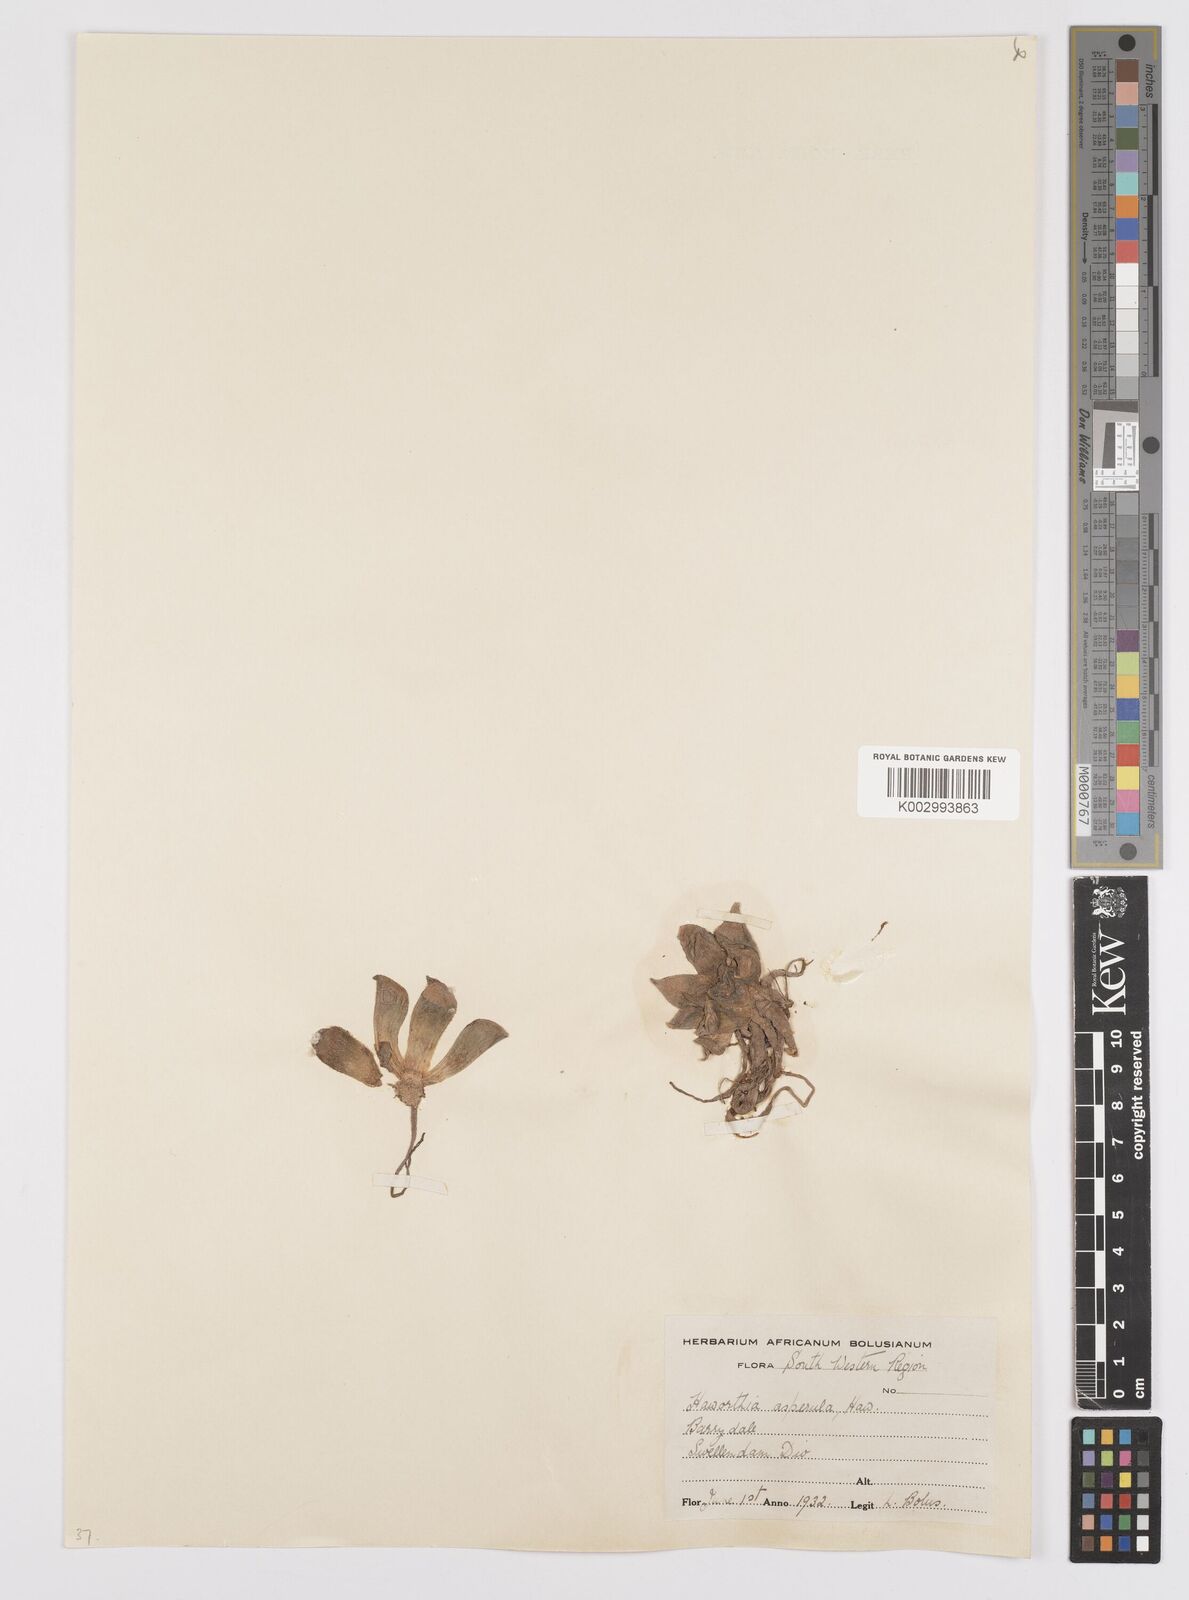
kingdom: Plantae
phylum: Tracheophyta
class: Liliopsida
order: Asparagales
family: Asphodelaceae
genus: Aloe
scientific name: Aloe aspera
